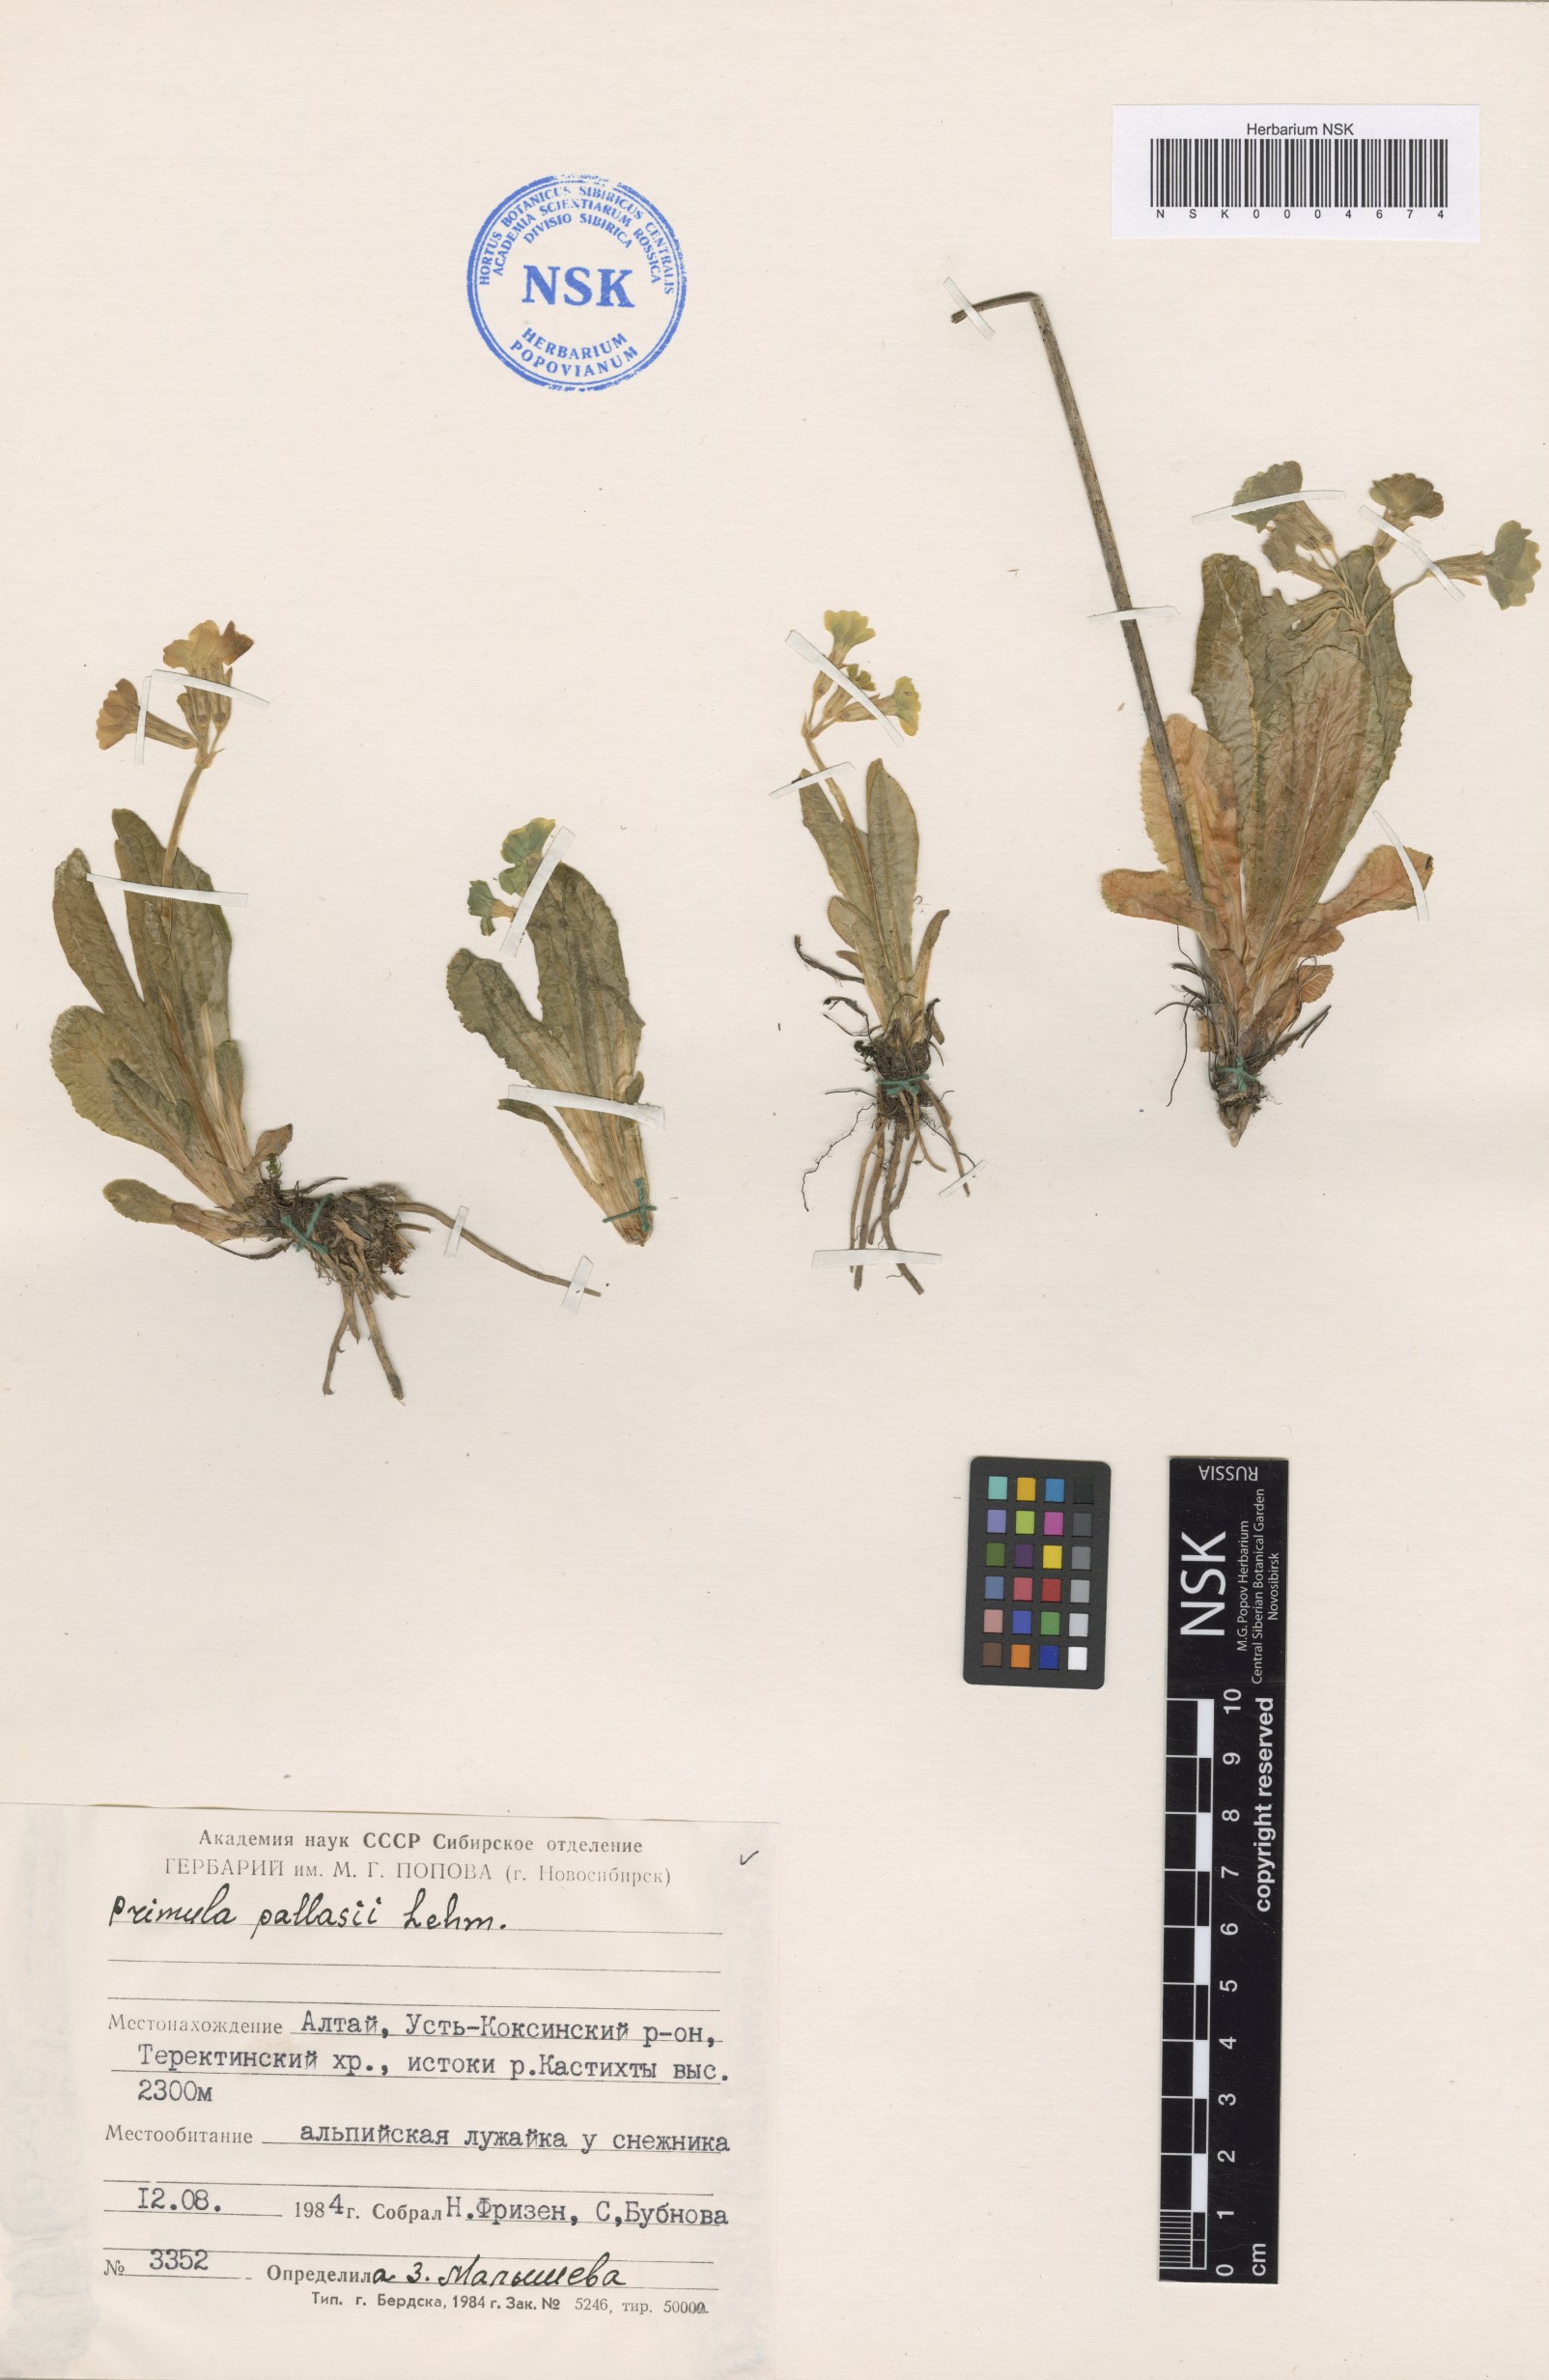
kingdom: Plantae
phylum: Tracheophyta
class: Magnoliopsida
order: Ericales
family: Primulaceae
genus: Primula
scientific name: Primula elatior
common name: Oxlip
